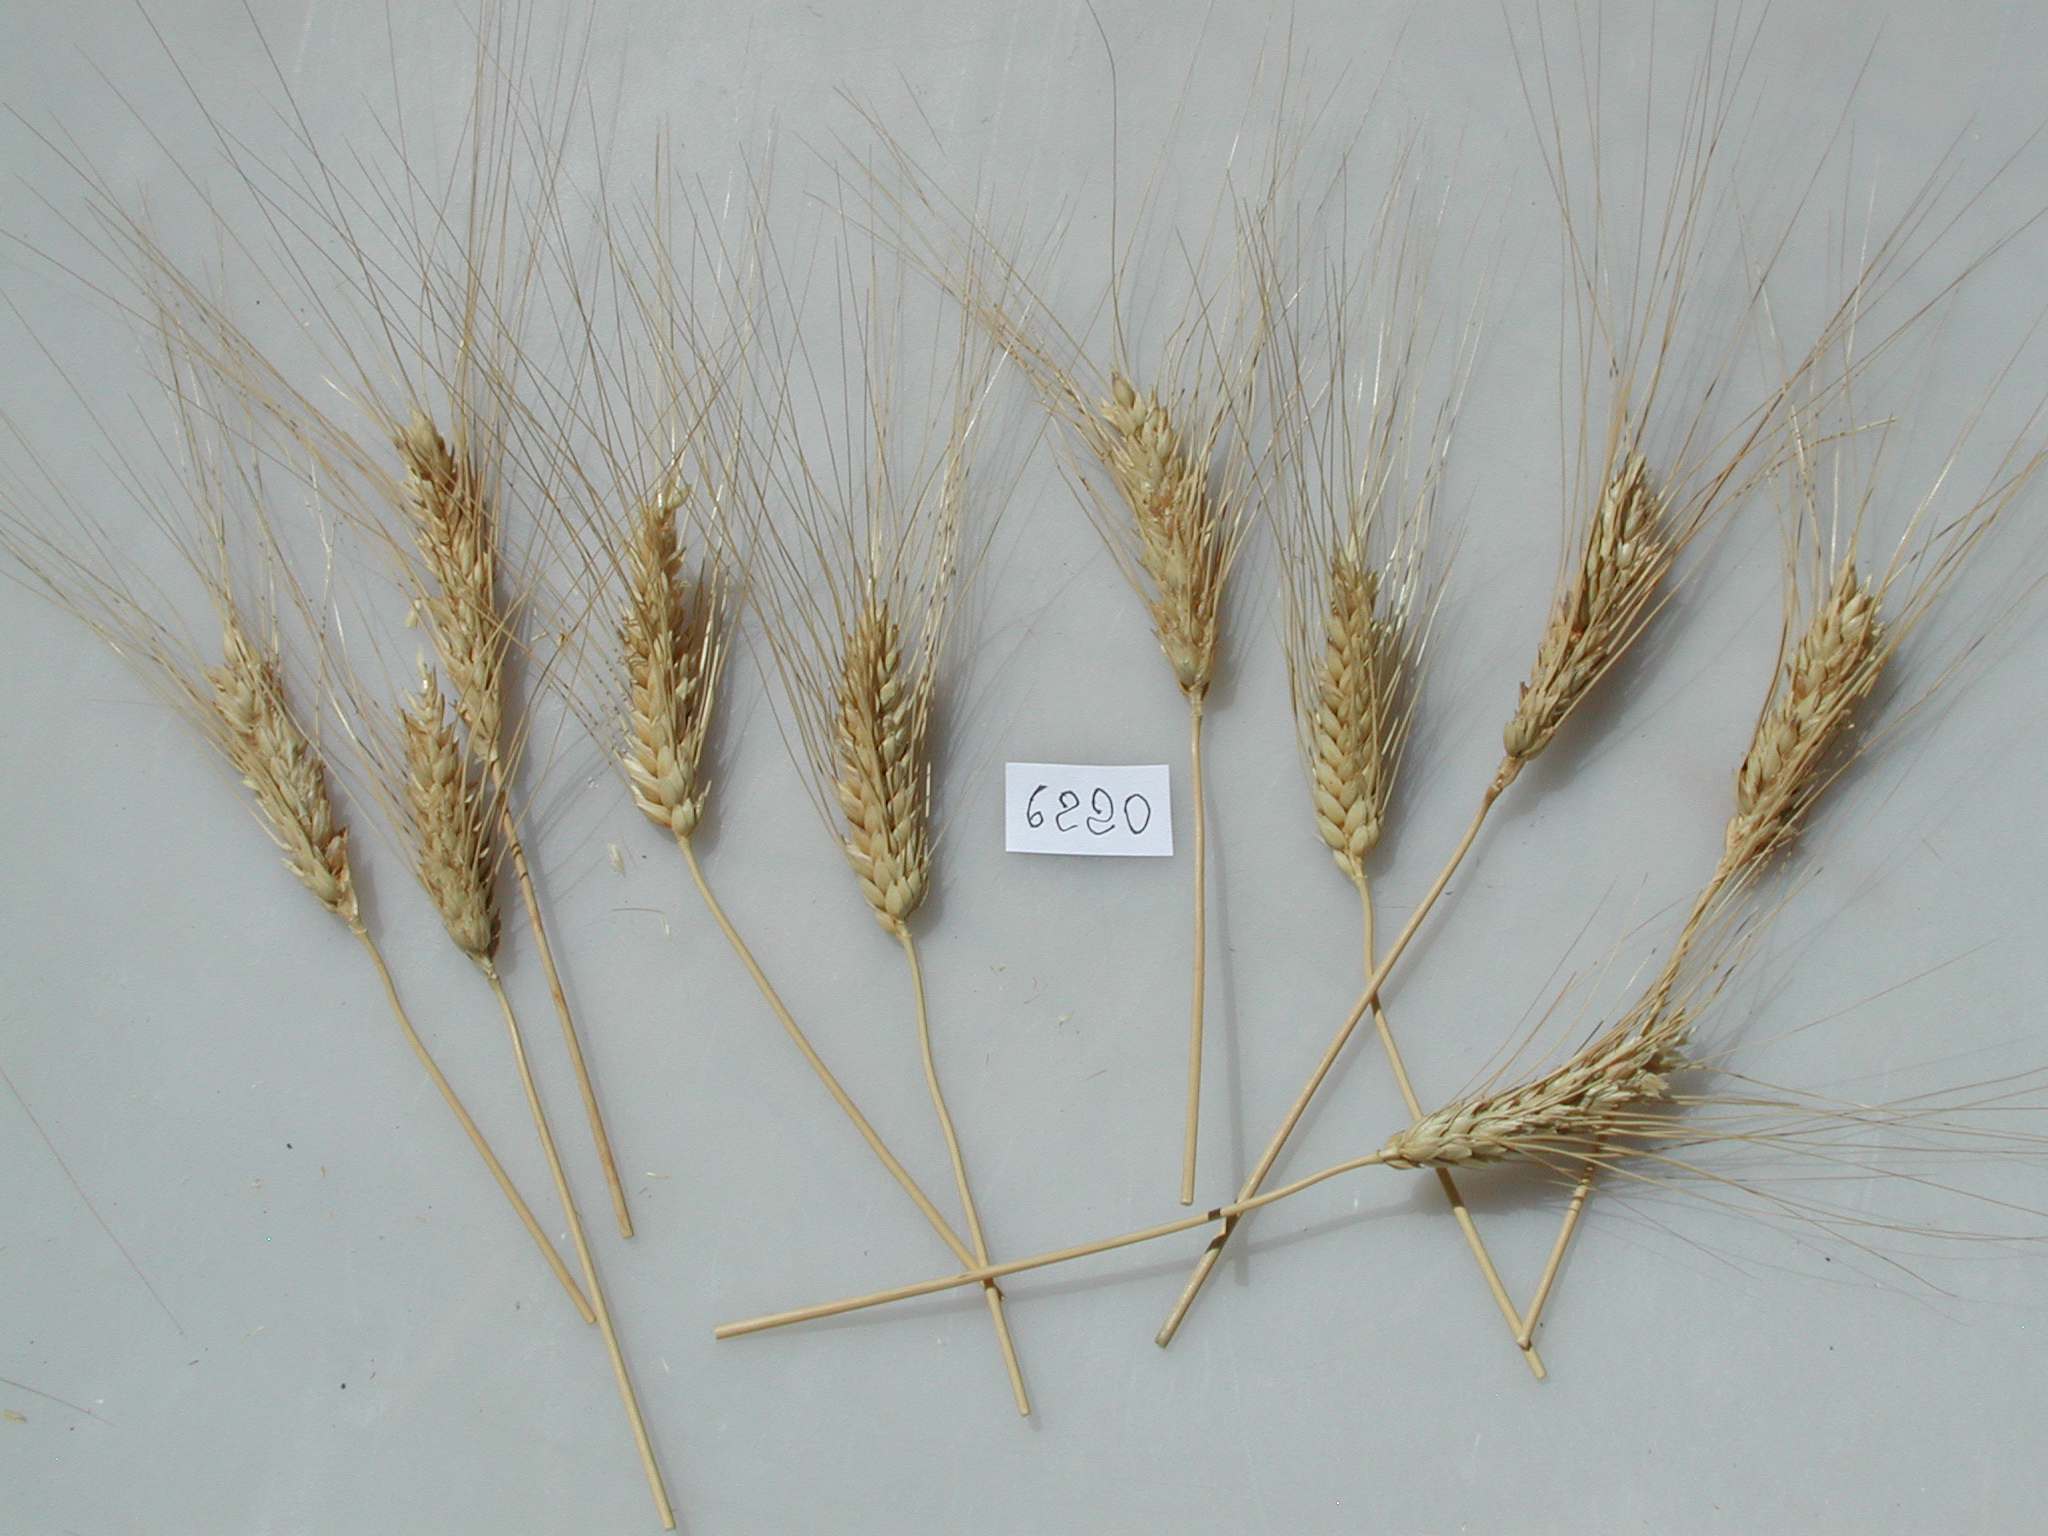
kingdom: Plantae
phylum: Tracheophyta
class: Liliopsida
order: Poales
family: Poaceae
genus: Triticum
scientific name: Triticum turgidum
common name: Wheat
